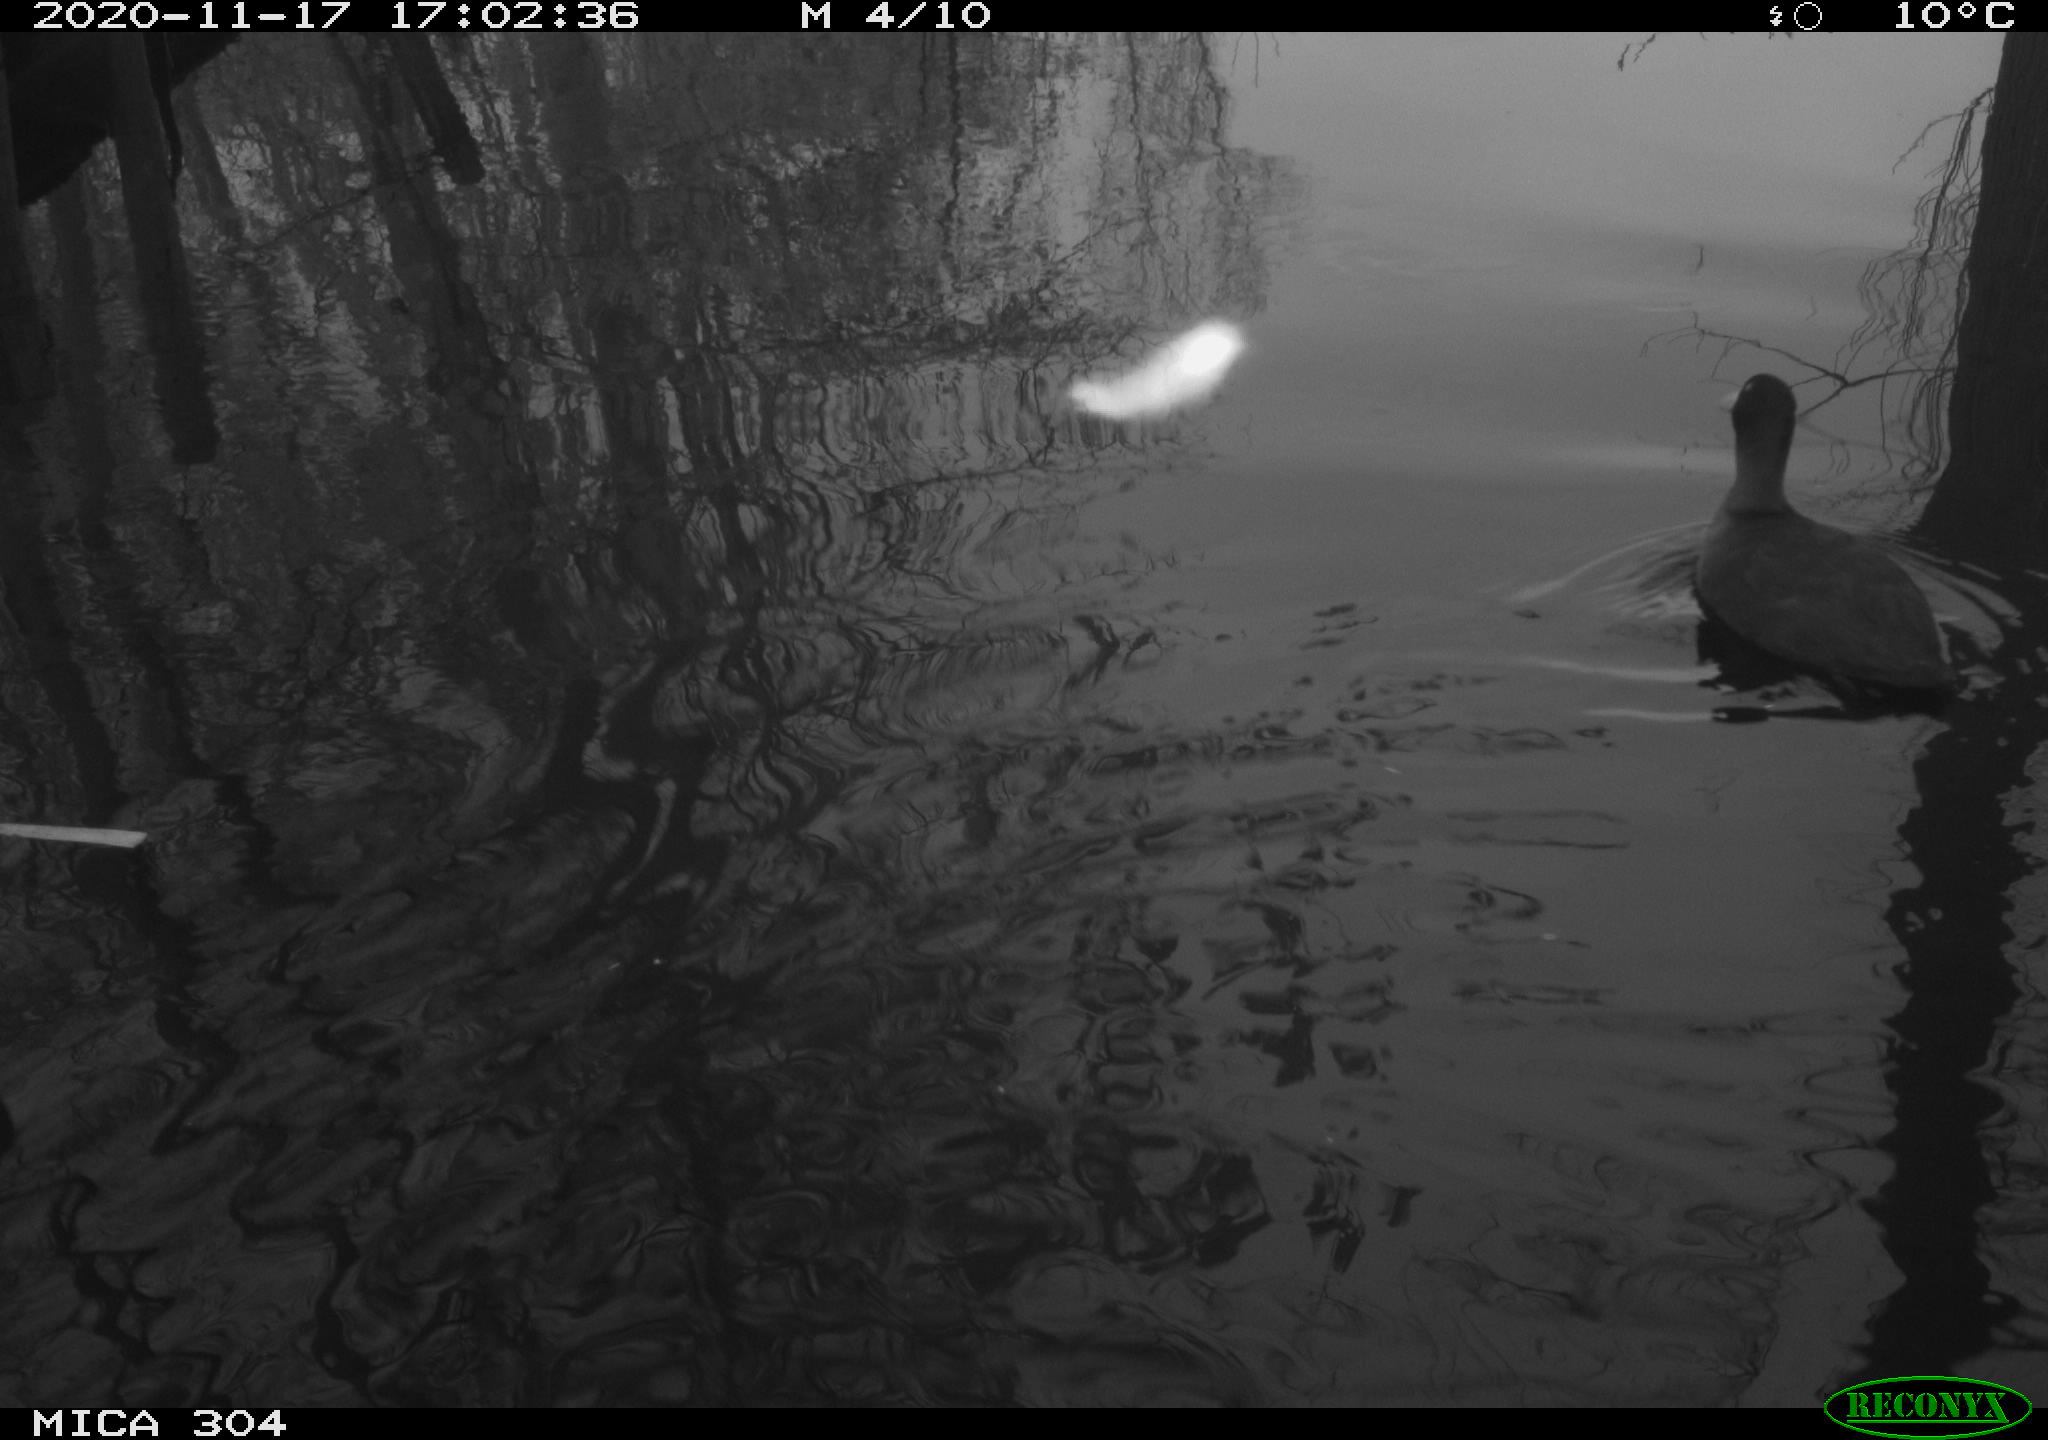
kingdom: Animalia
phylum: Chordata
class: Aves
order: Gruiformes
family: Rallidae
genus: Fulica
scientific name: Fulica atra
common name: Eurasian coot
